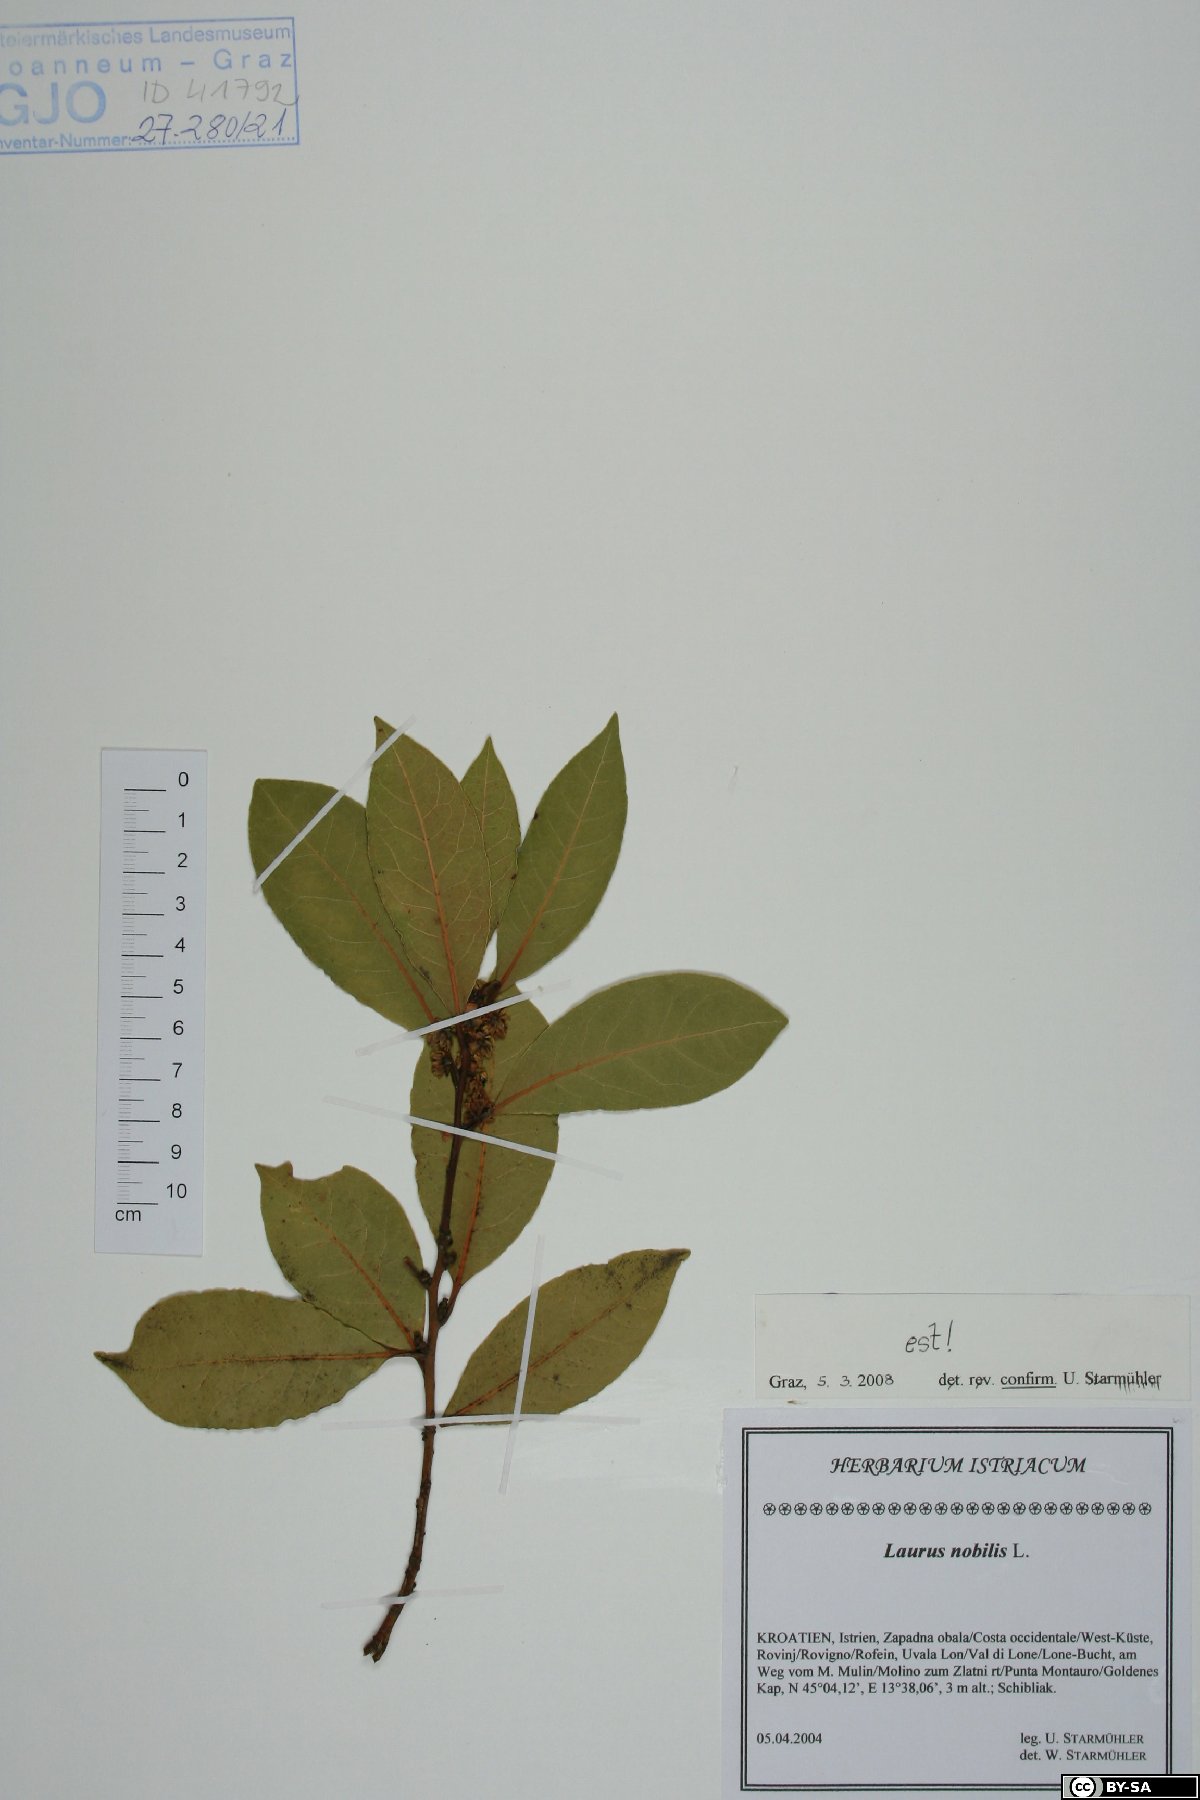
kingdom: Plantae
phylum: Tracheophyta
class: Magnoliopsida
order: Laurales
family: Lauraceae
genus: Laurus
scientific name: Laurus nobilis
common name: Bay
